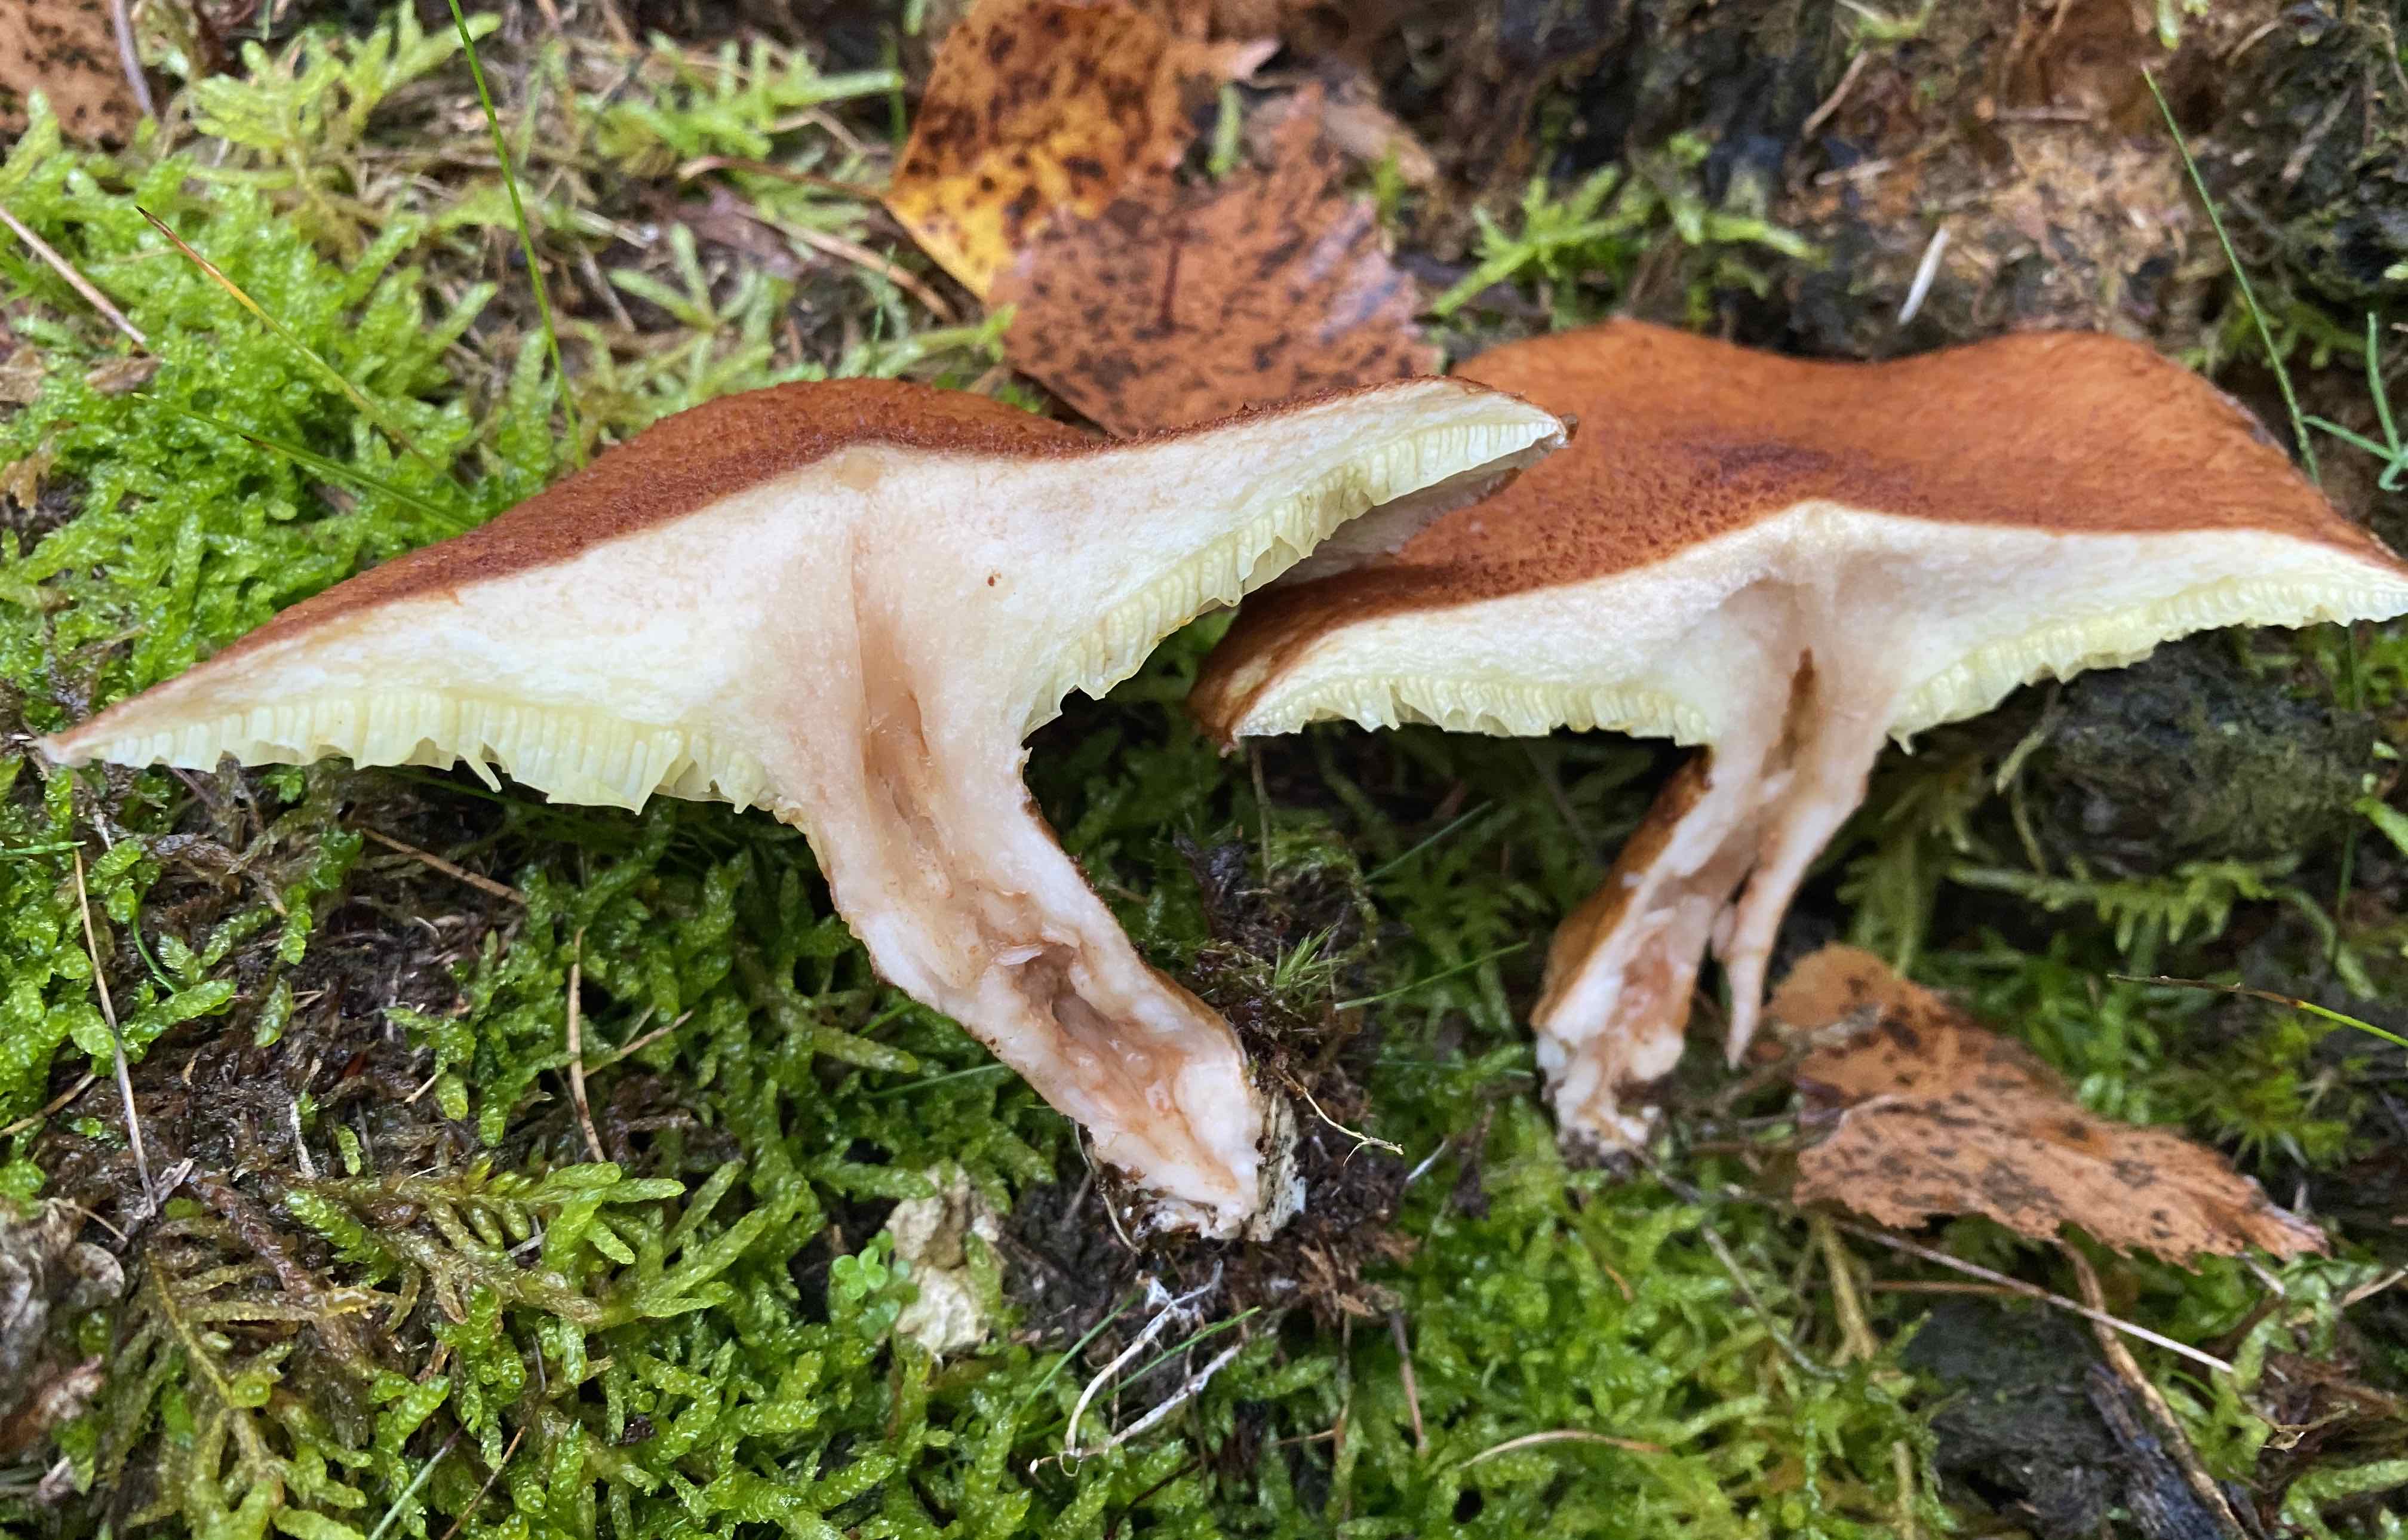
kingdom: Fungi
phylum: Basidiomycota
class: Agaricomycetes
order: Boletales
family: Suillaceae
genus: Suillus
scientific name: Suillus cavipes
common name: hulstokket slimrørhat
